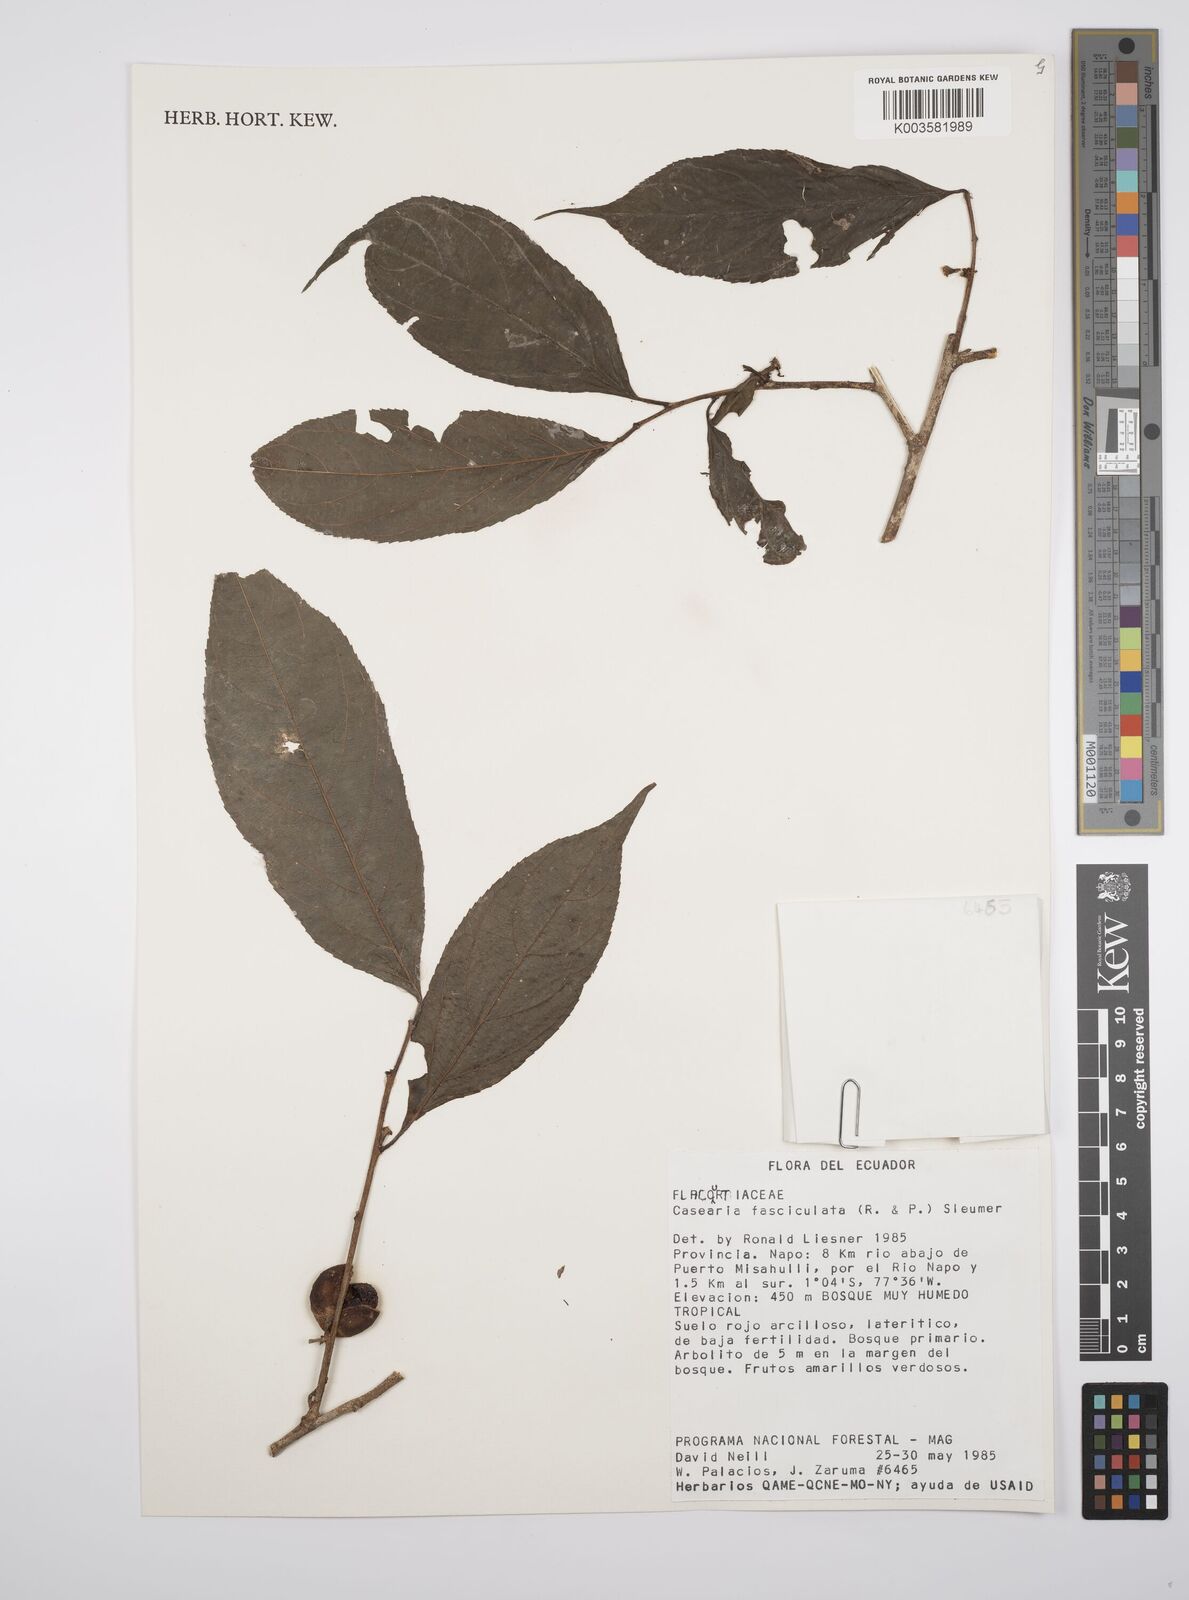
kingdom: Plantae
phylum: Tracheophyta
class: Magnoliopsida
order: Malpighiales
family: Salicaceae
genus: Casearia
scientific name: Casearia
